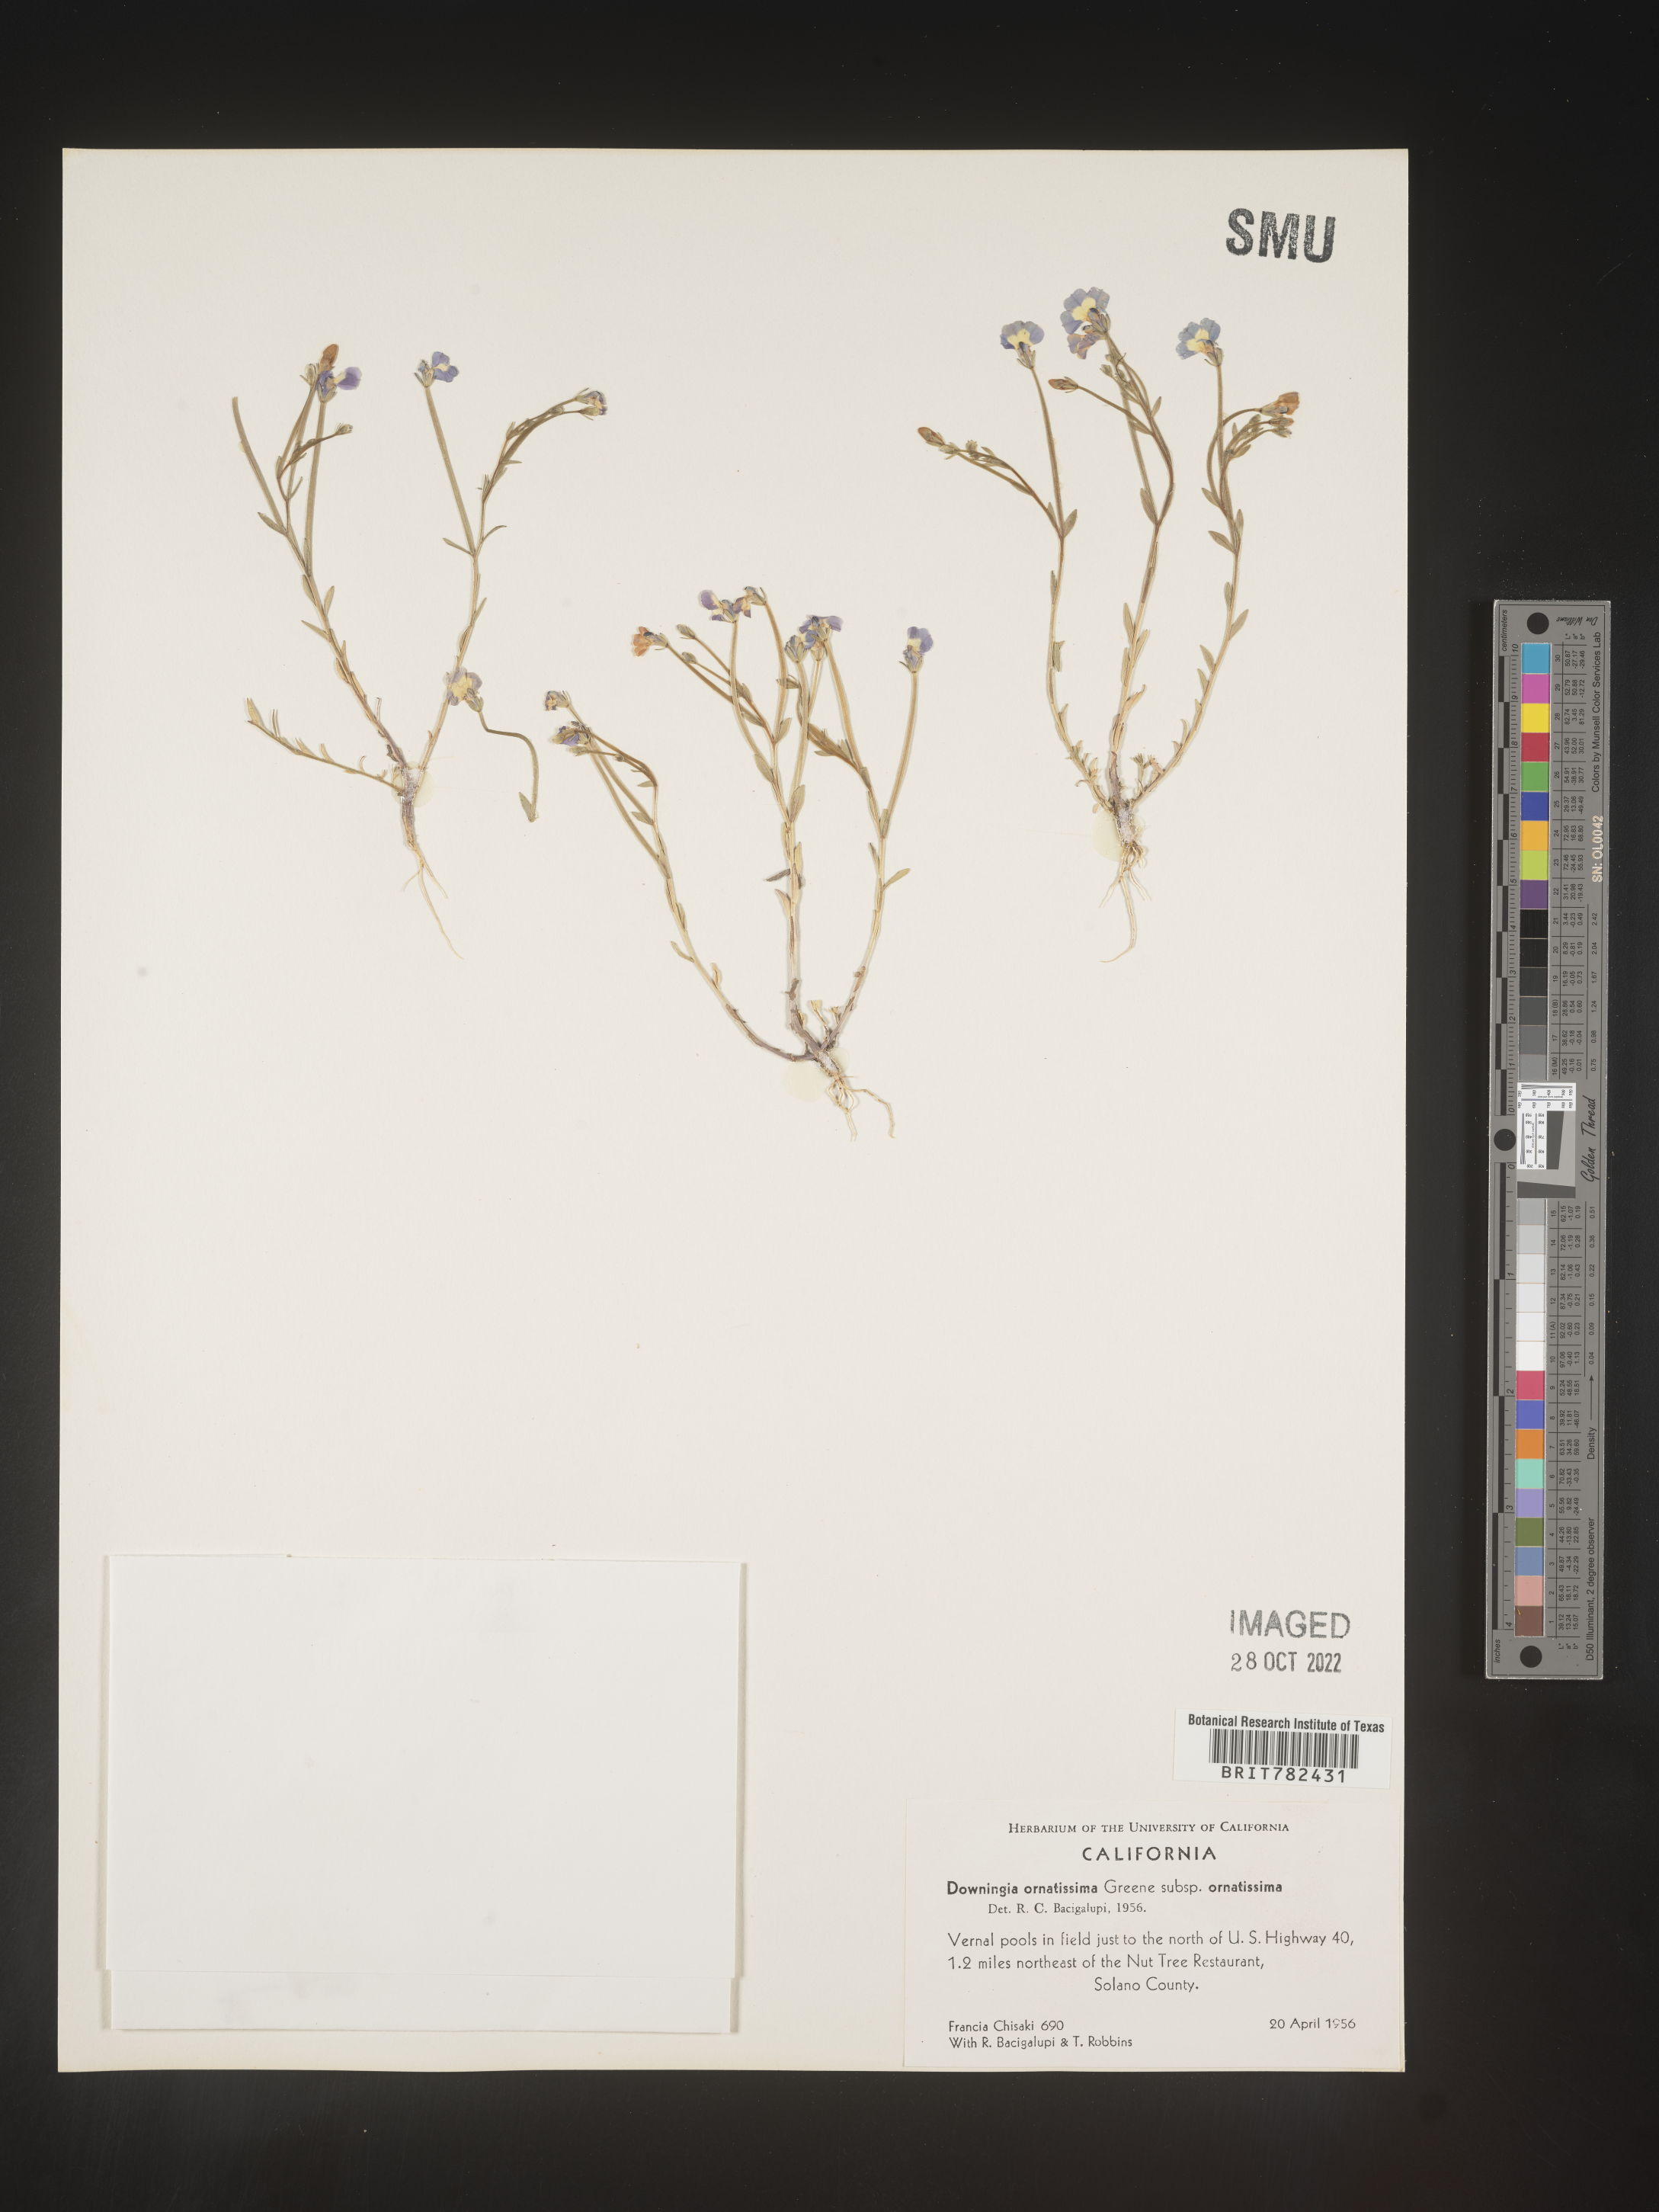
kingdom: Plantae
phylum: Tracheophyta
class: Magnoliopsida
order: Asterales
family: Campanulaceae
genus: Downingia
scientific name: Downingia
